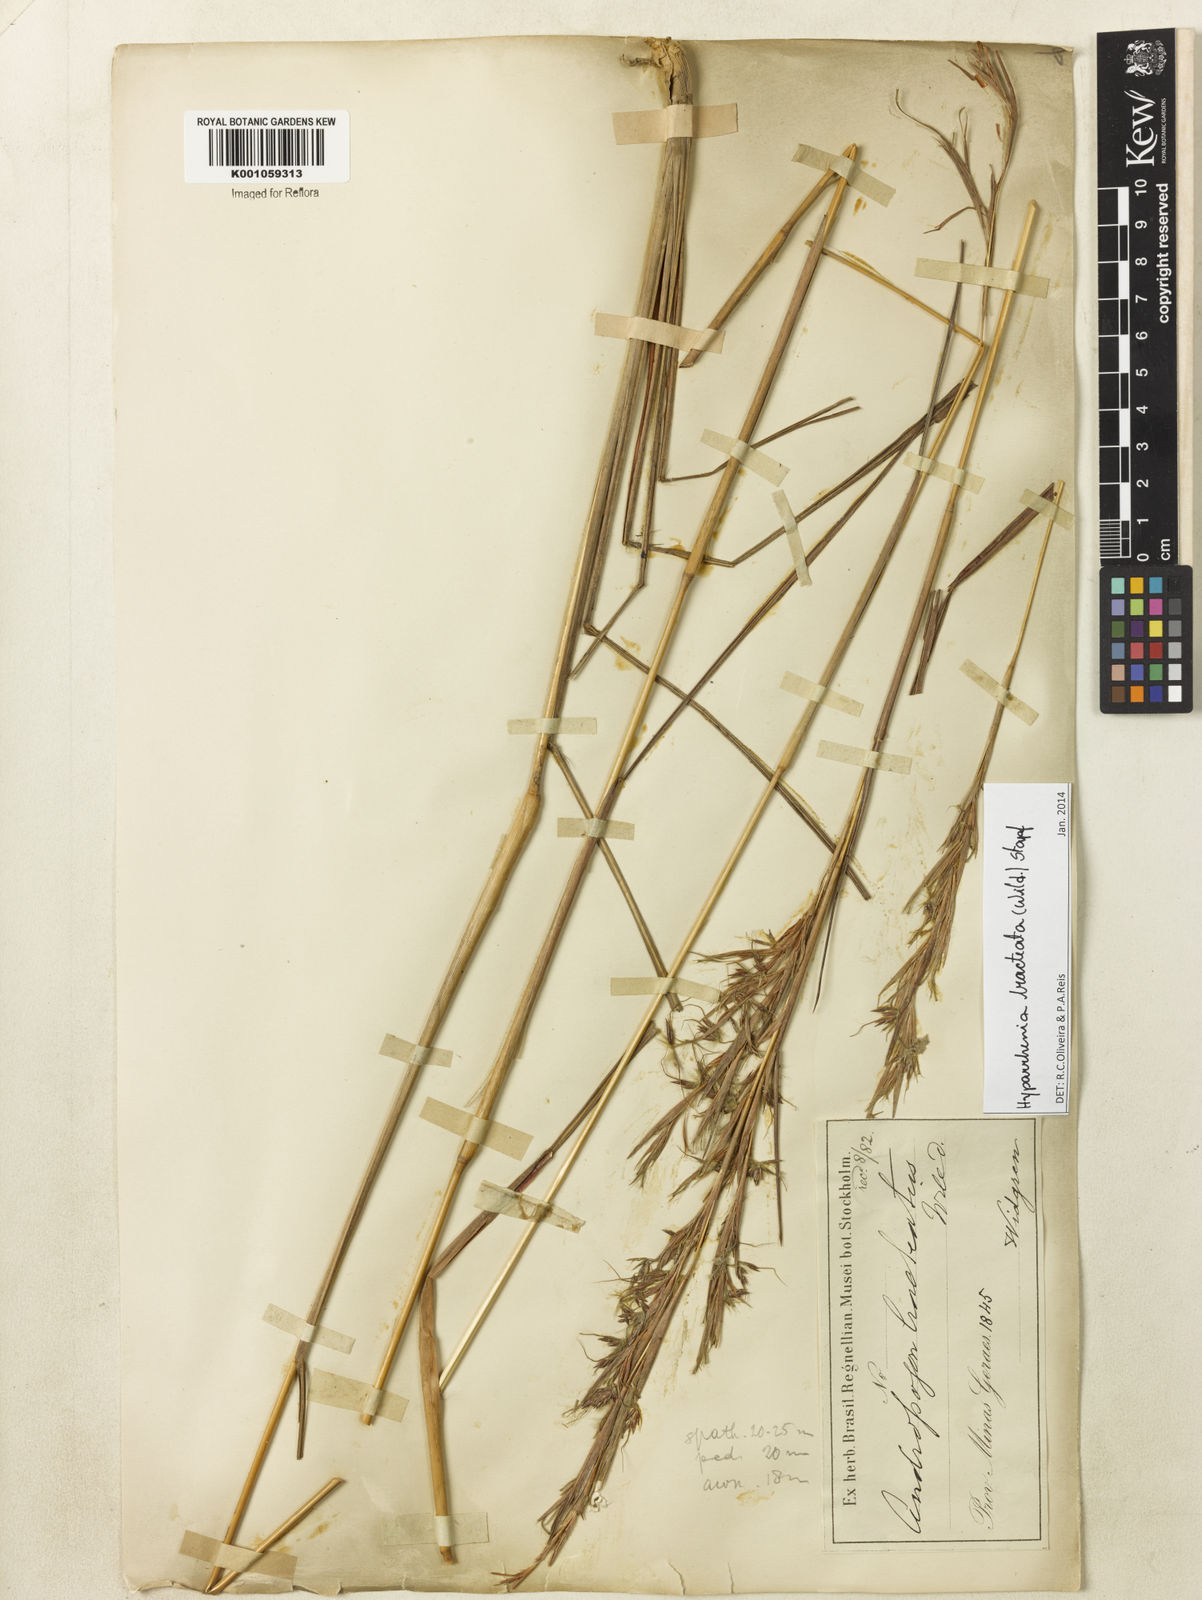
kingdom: Plantae
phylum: Tracheophyta
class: Liliopsida
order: Poales
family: Poaceae
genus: Hyparrhenia
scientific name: Hyparrhenia bracteata
